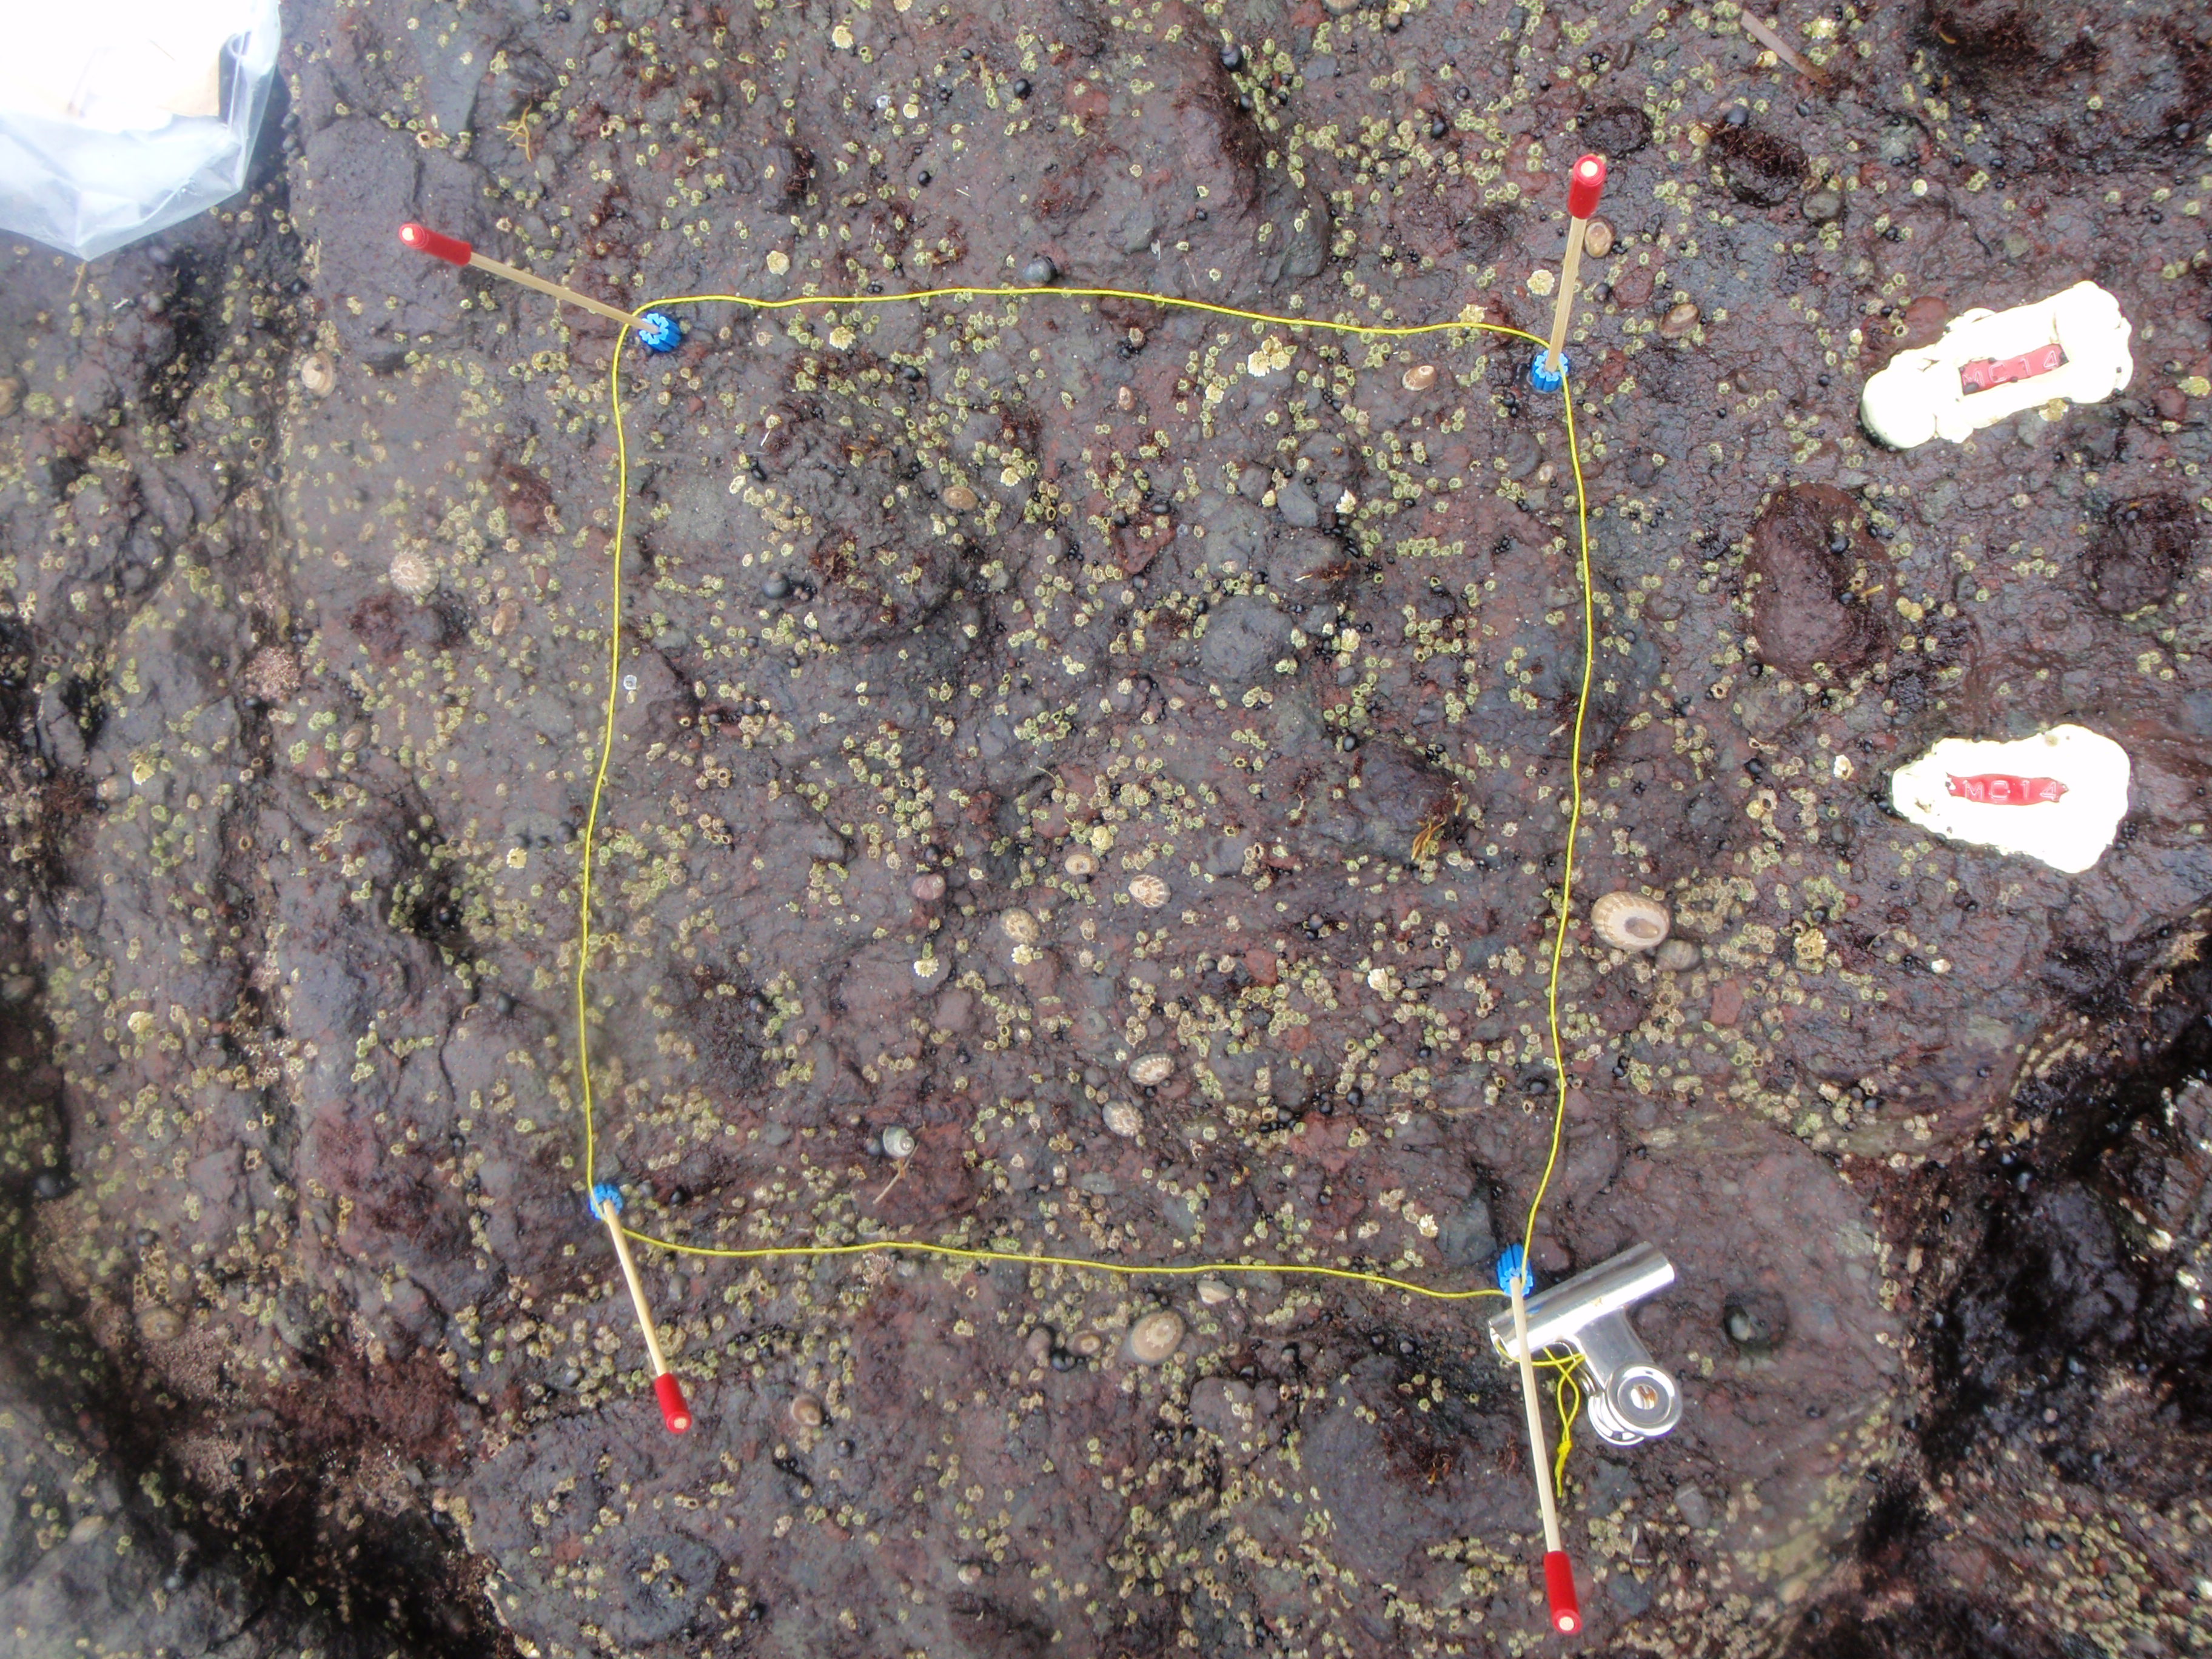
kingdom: Animalia
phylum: Arthropoda
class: Maxillopoda
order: Sessilia
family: Chthamalidae
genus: Chthamalus
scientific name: Chthamalus dalli
